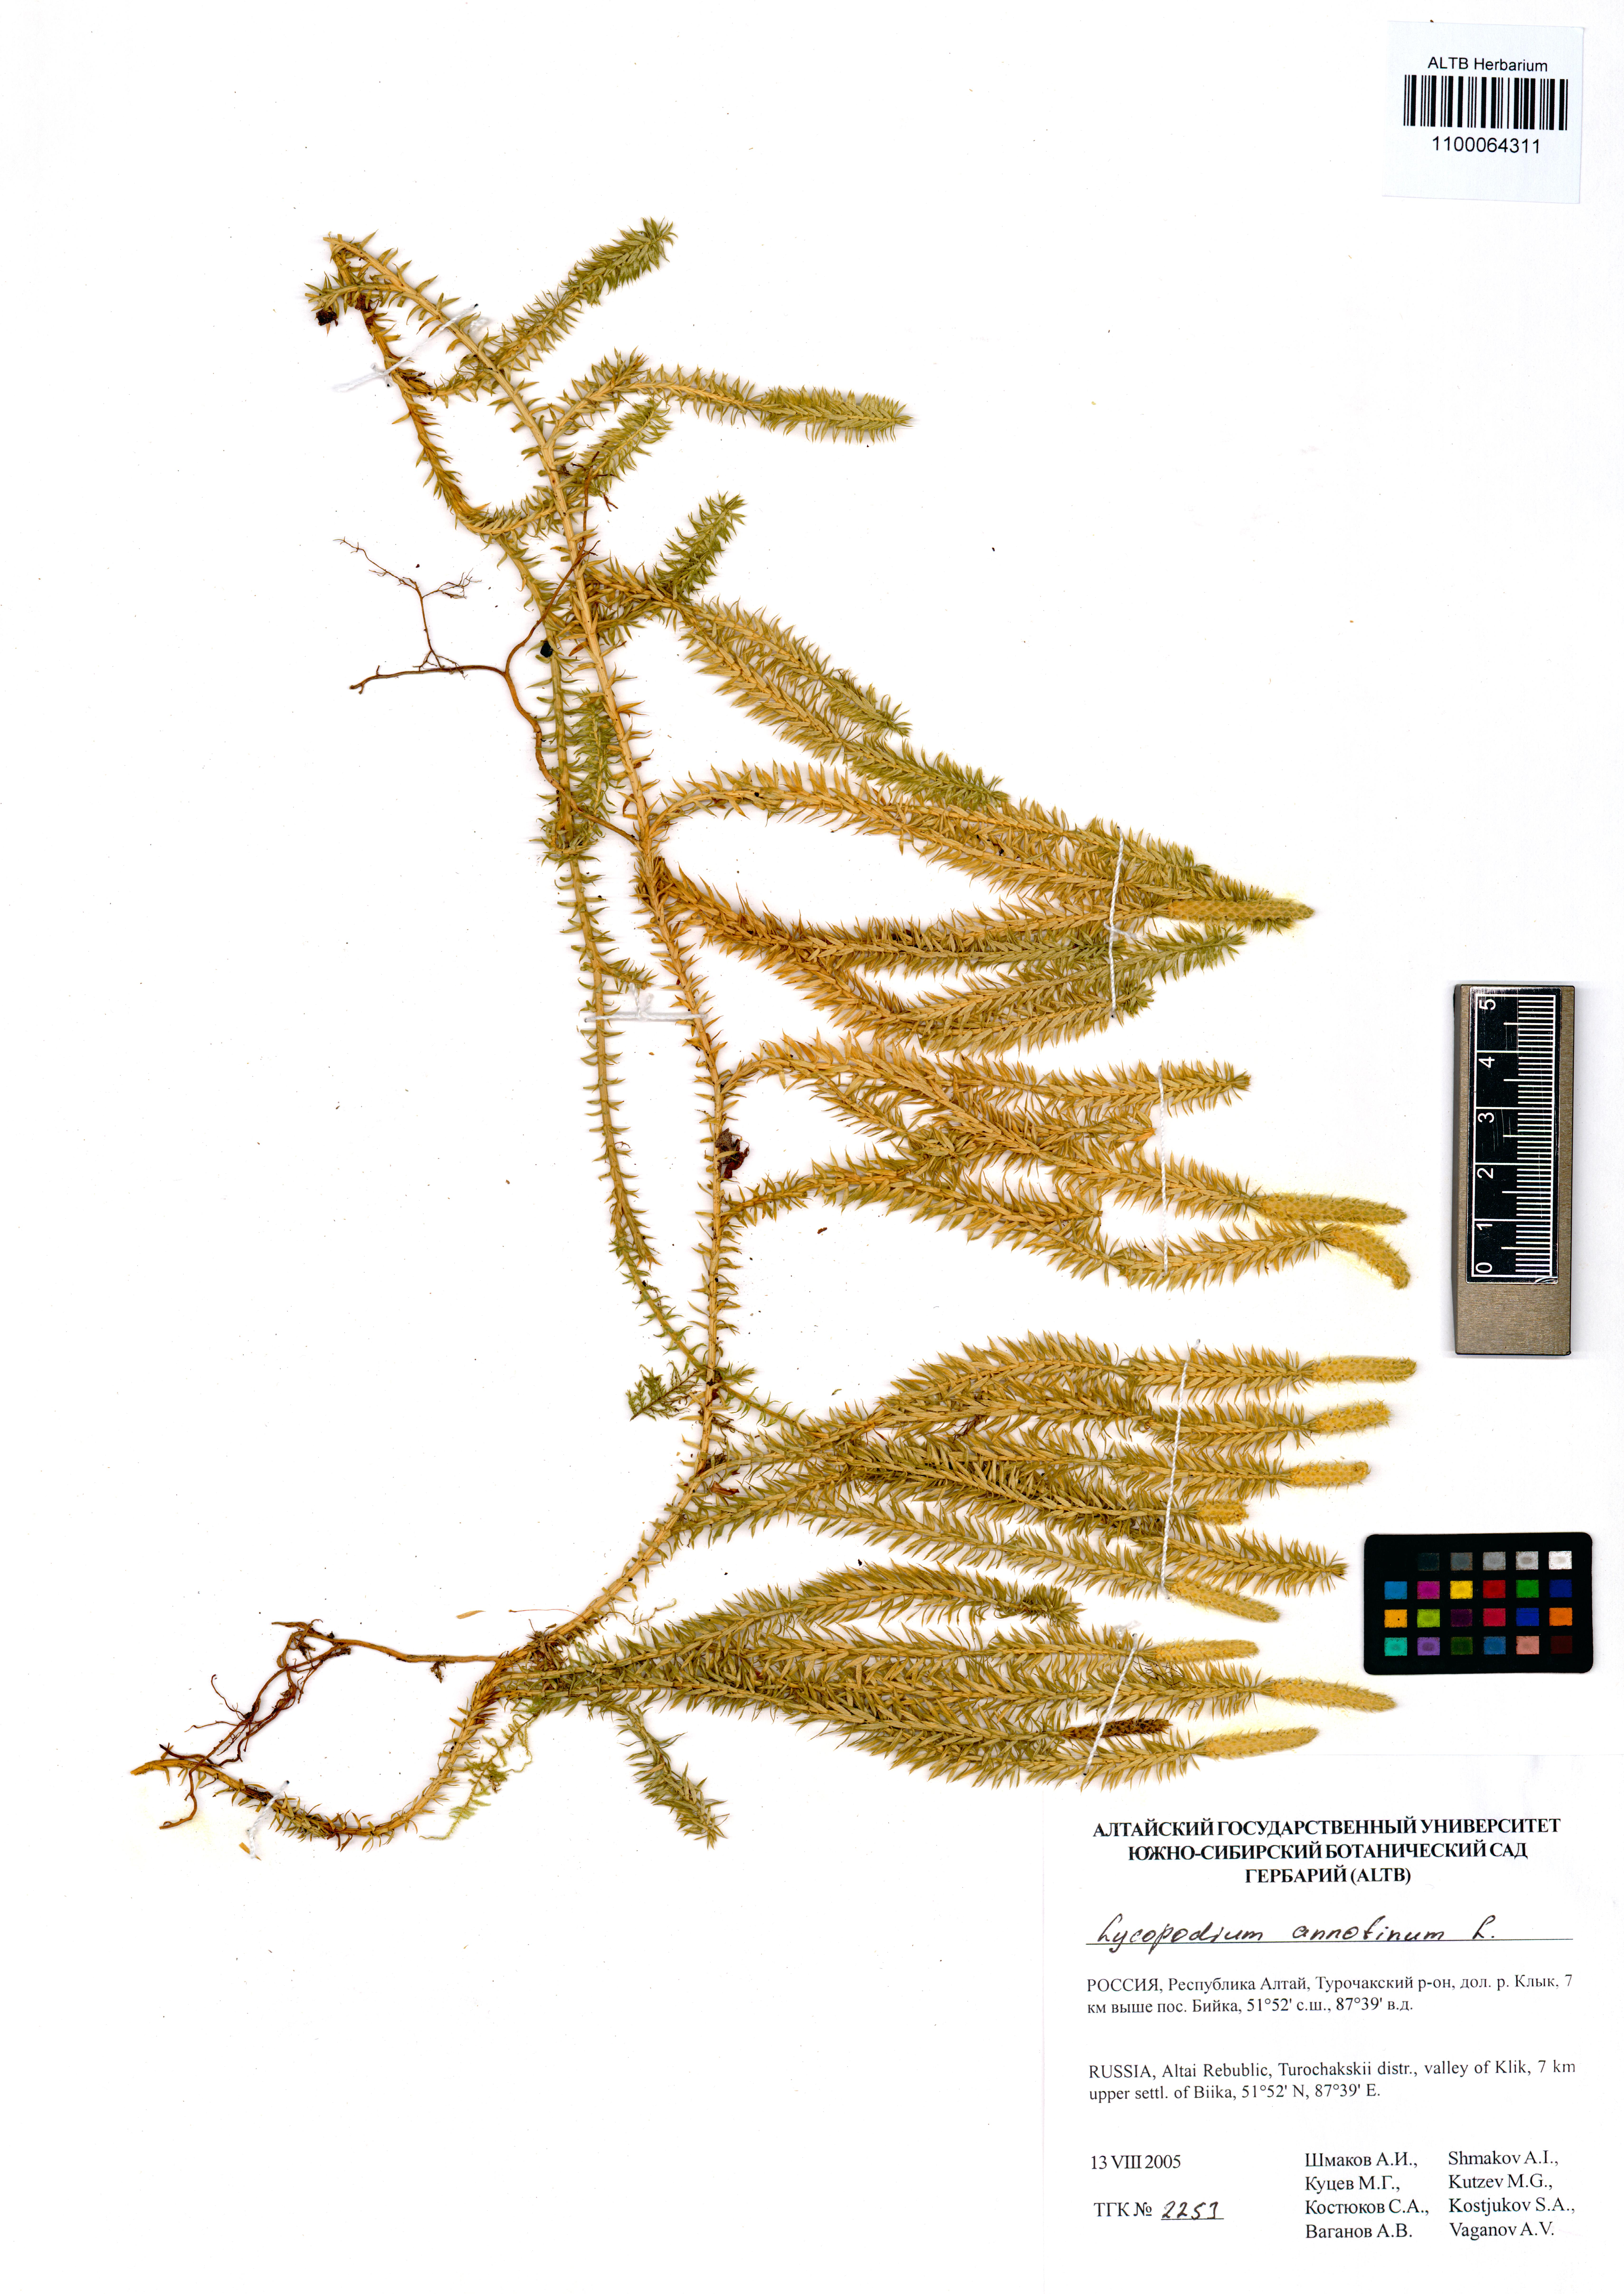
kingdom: Plantae
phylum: Tracheophyta
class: Lycopodiopsida
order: Lycopodiales
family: Lycopodiaceae
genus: Spinulum
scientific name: Spinulum annotinum
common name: Interrupted club-moss
